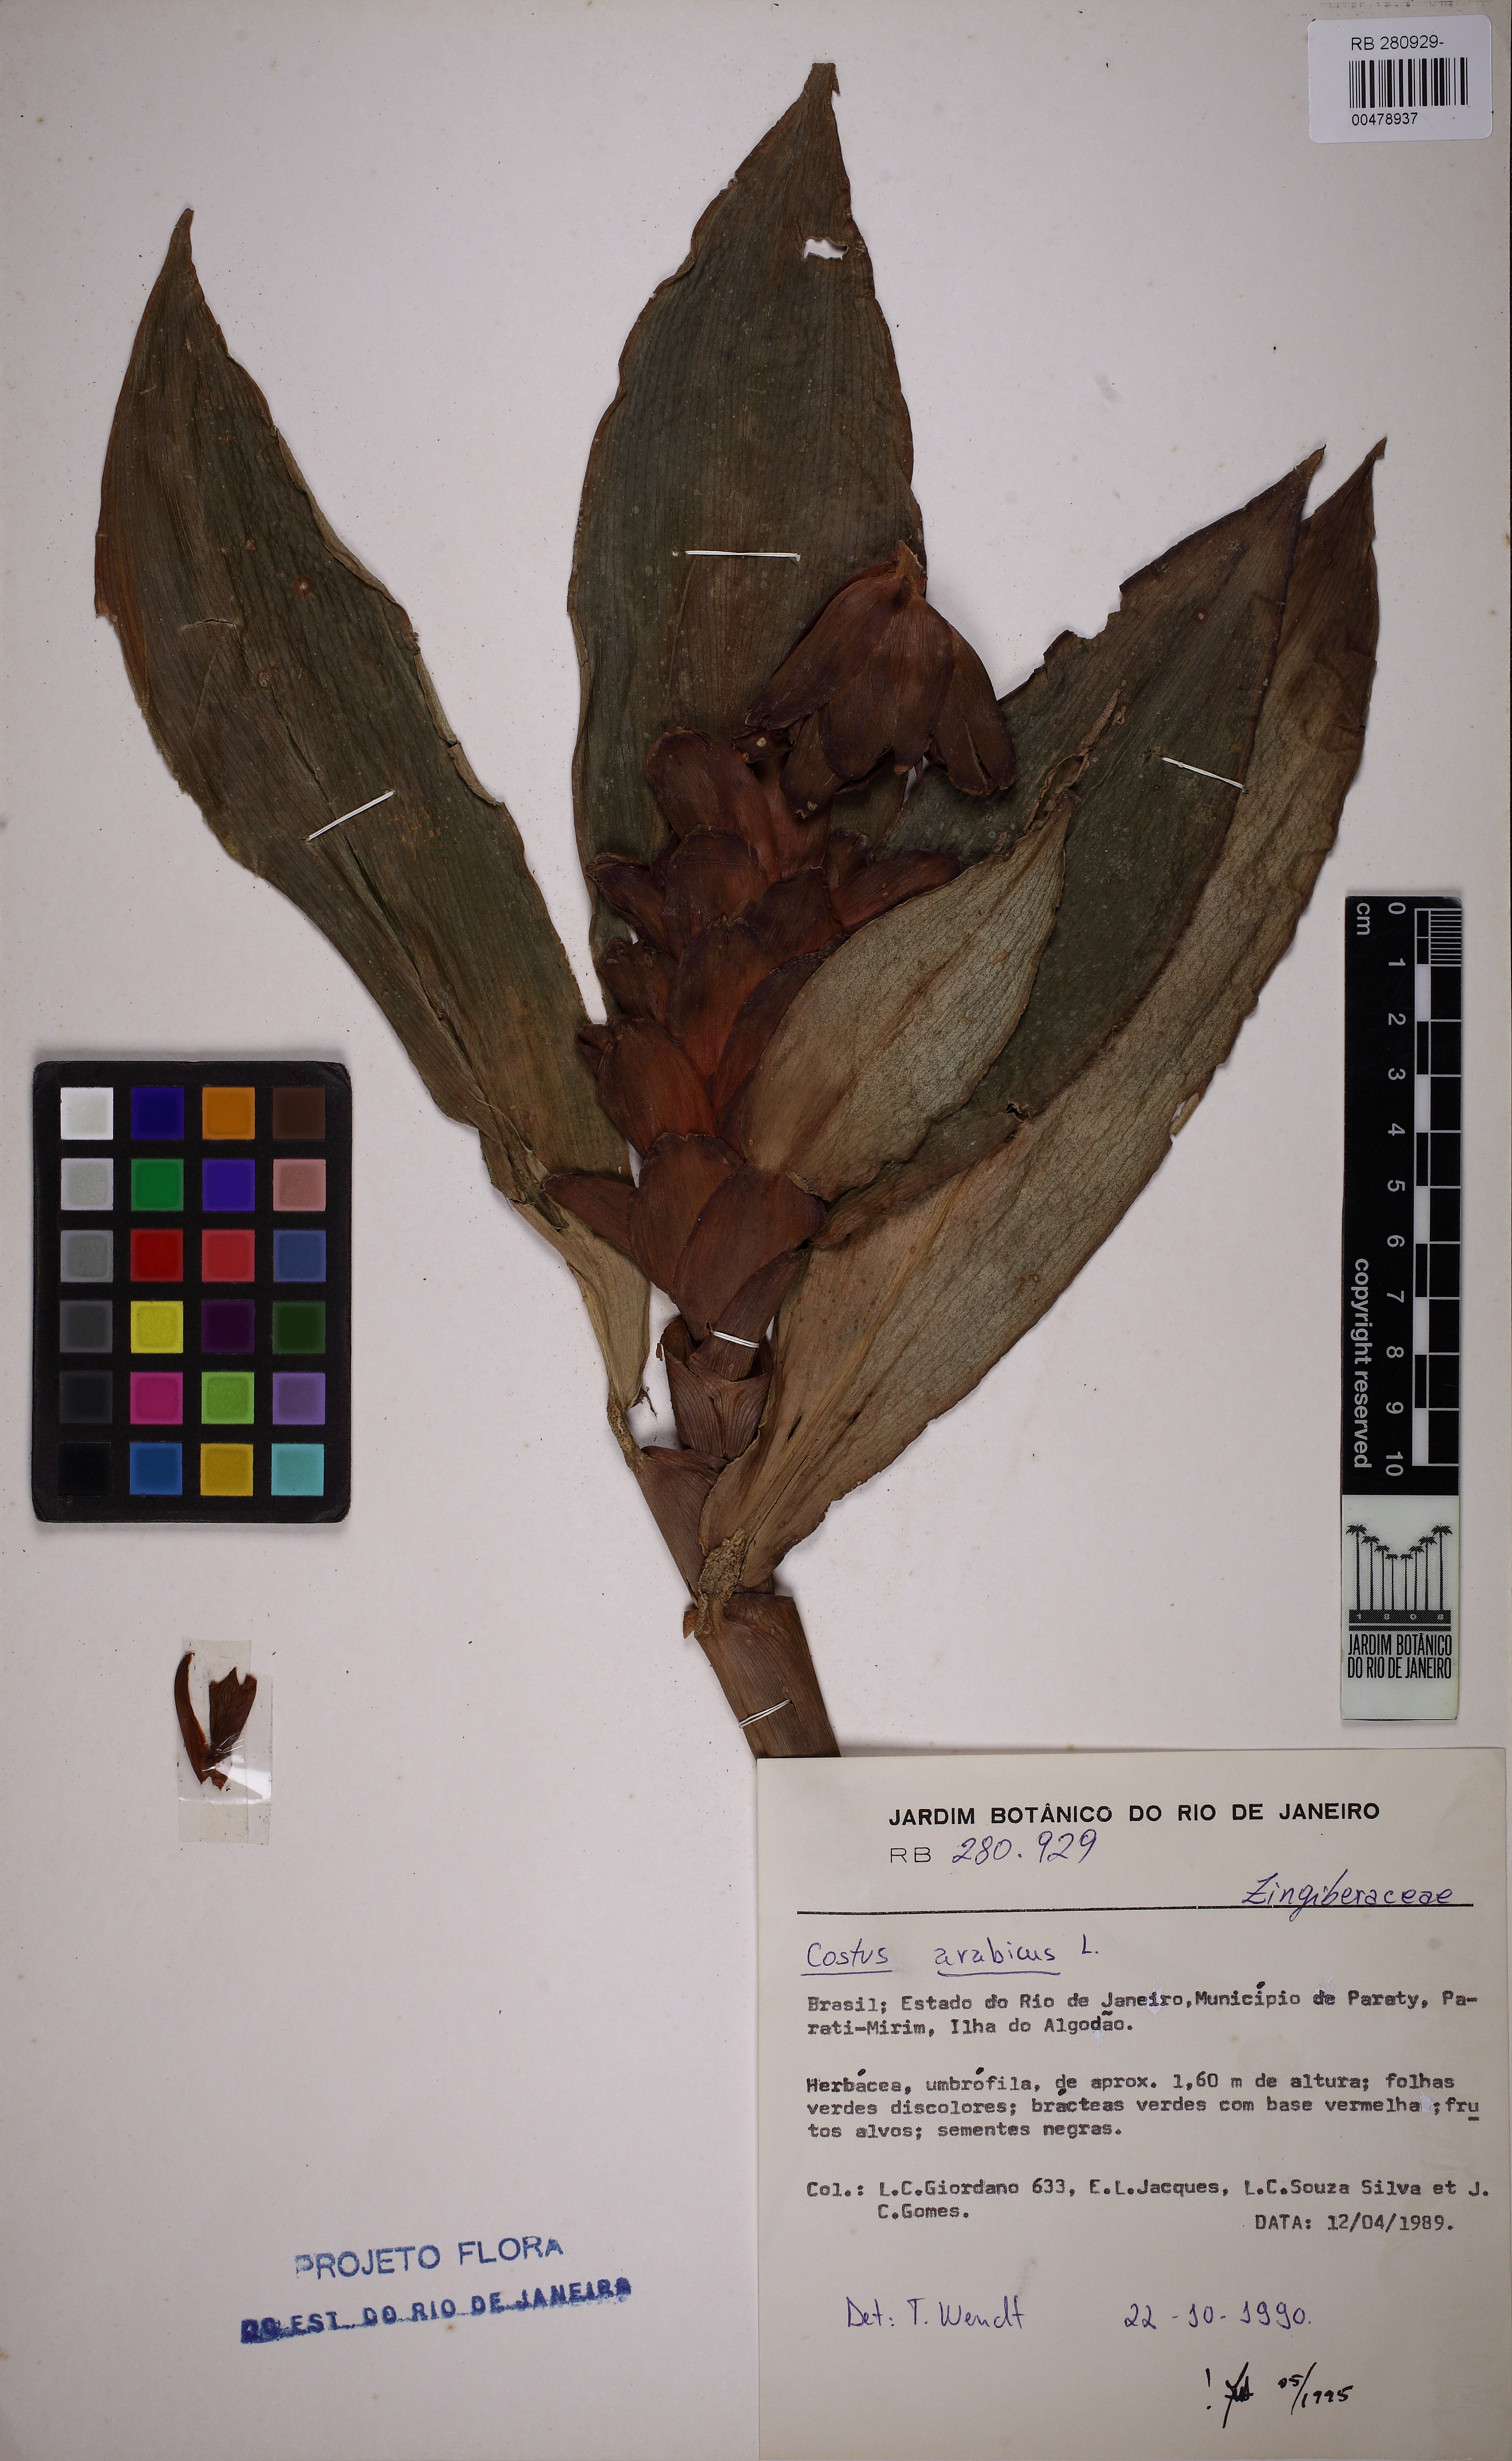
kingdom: Plantae
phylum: Tracheophyta
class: Liliopsida
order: Zingiberales
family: Costaceae
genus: Costus
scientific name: Costus arabicus
